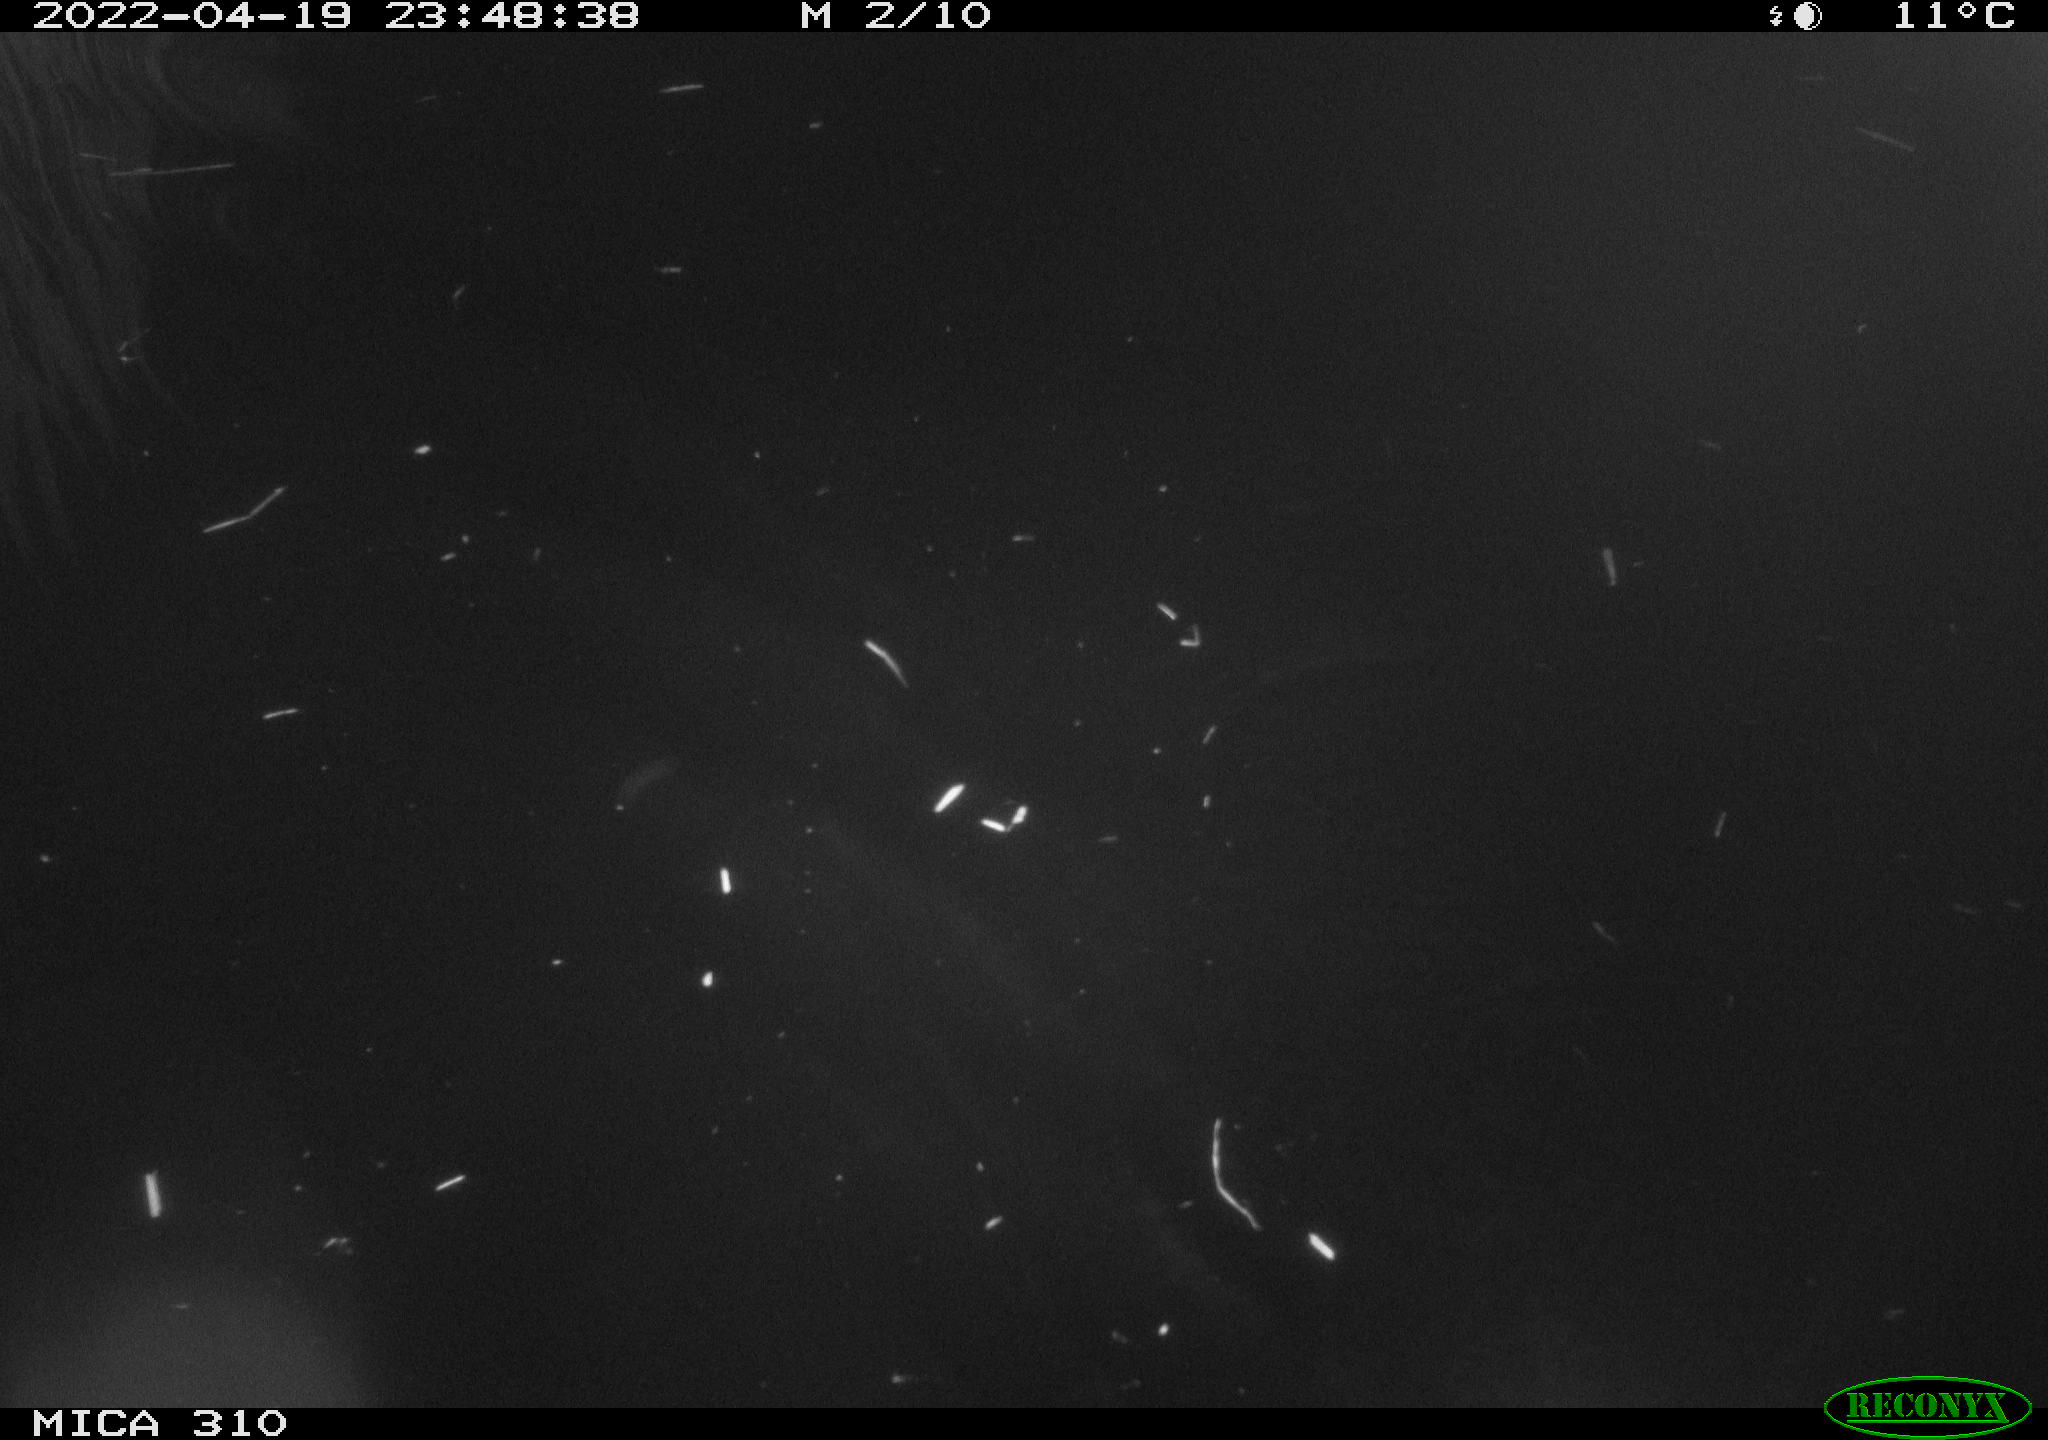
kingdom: Animalia
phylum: Chordata
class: Aves
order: Anseriformes
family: Anatidae
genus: Anas
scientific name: Anas platyrhynchos
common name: Mallard
